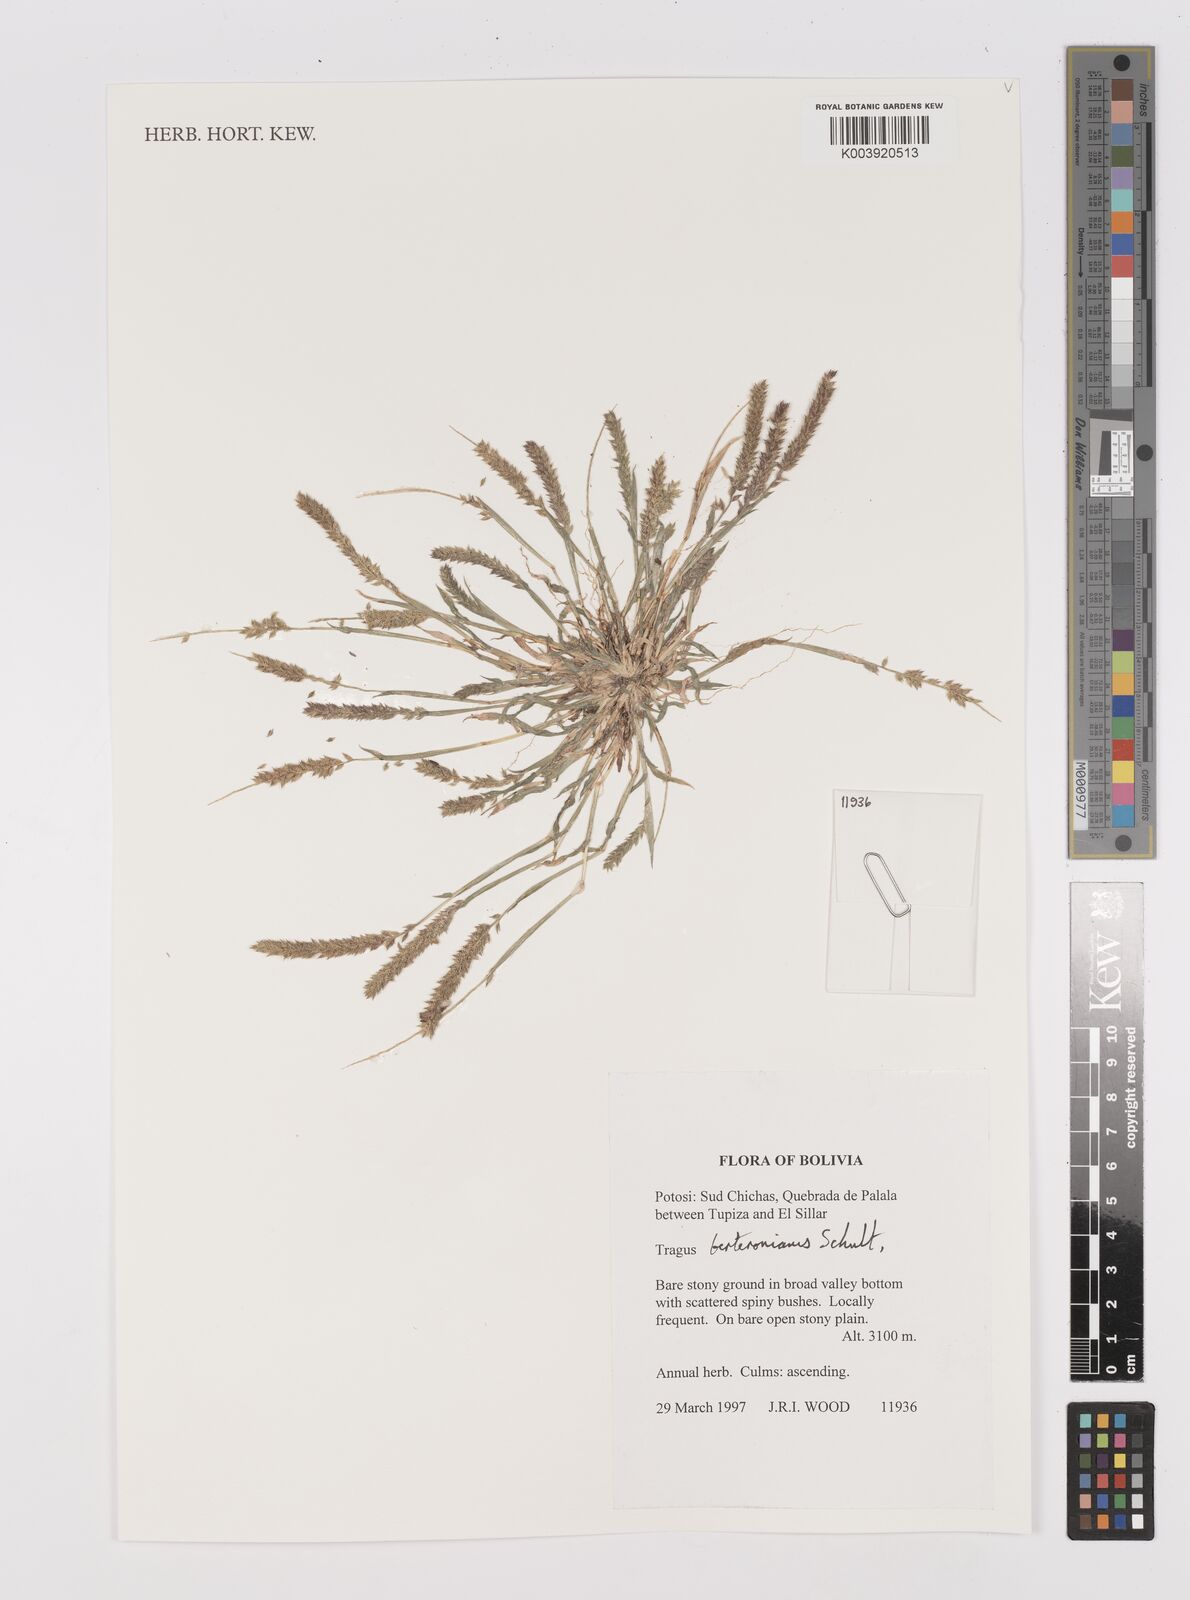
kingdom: Plantae
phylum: Tracheophyta
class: Liliopsida
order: Poales
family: Poaceae
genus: Tragus
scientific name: Tragus berteronianus
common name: African bur-grass
